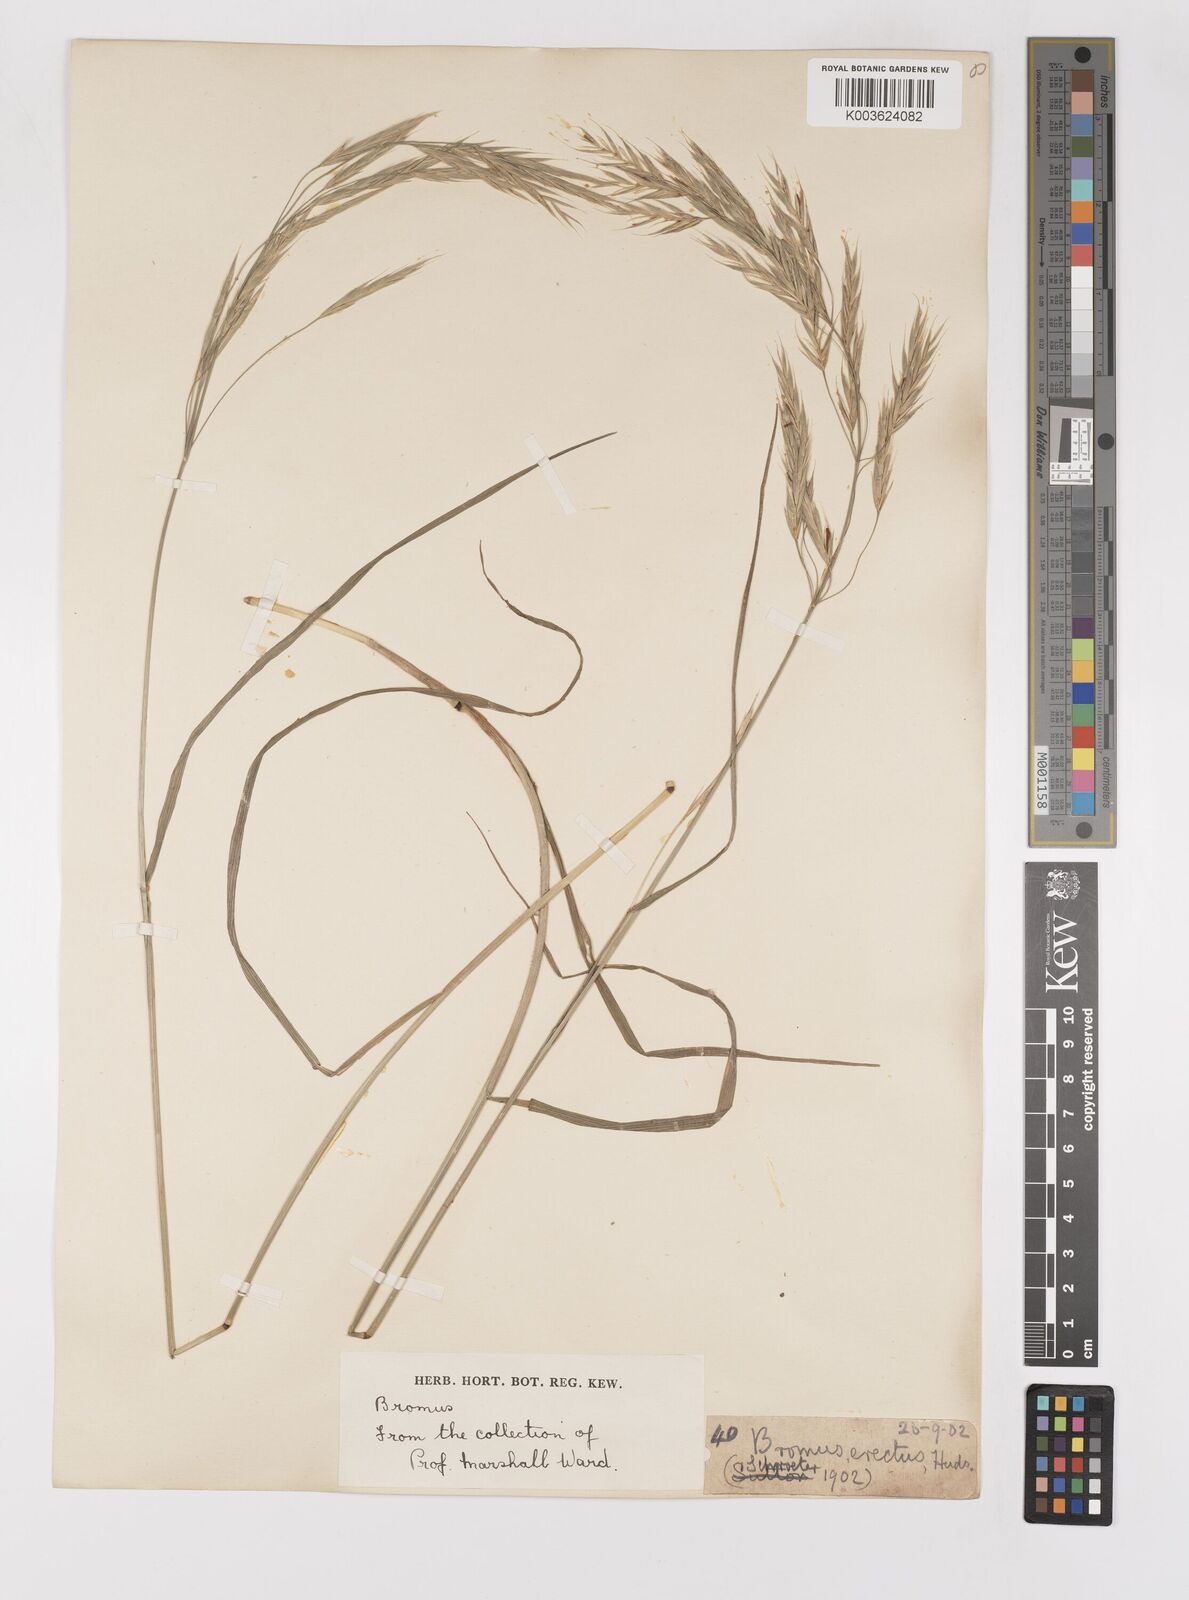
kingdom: Plantae
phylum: Tracheophyta
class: Liliopsida
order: Poales
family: Poaceae
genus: Bromus
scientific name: Bromus erectus
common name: Erect brome
